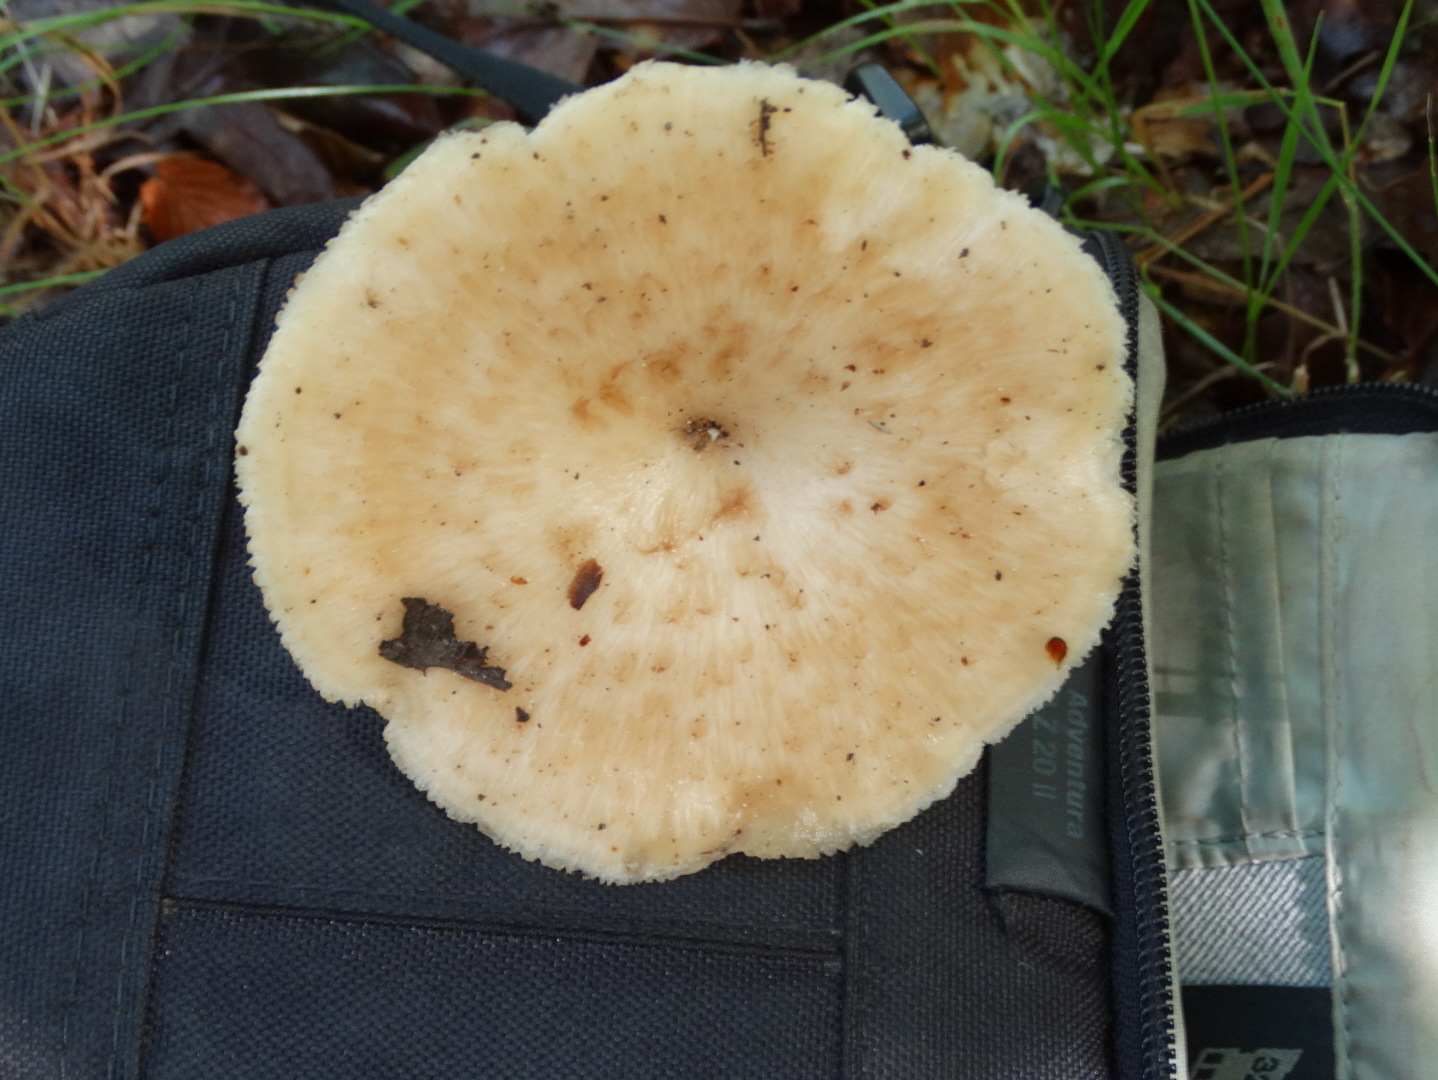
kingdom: Fungi
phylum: Basidiomycota
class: Agaricomycetes
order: Polyporales
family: Polyporaceae
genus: Polyporus
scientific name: Polyporus tuberaster
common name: knoldet stilkporesvamp
